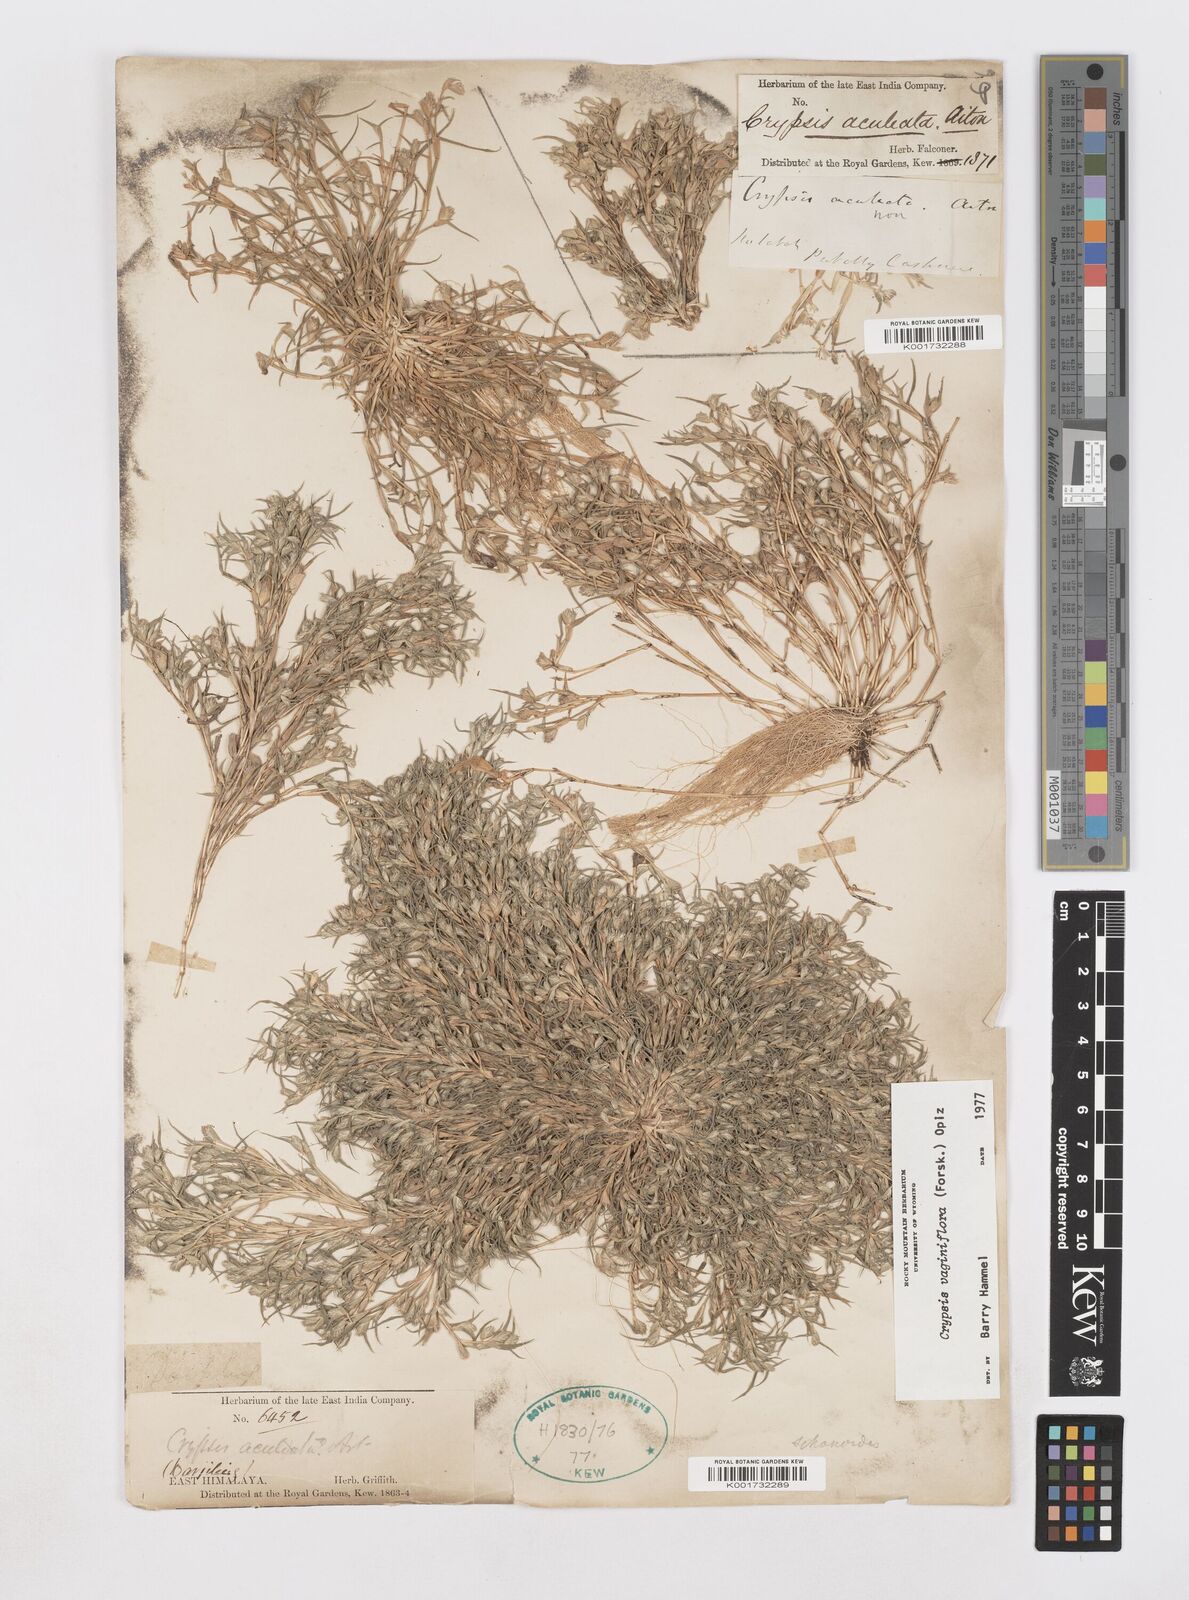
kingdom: Plantae
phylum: Tracheophyta
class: Liliopsida
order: Poales
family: Poaceae
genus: Sporobolus
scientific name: Sporobolus niliacus
